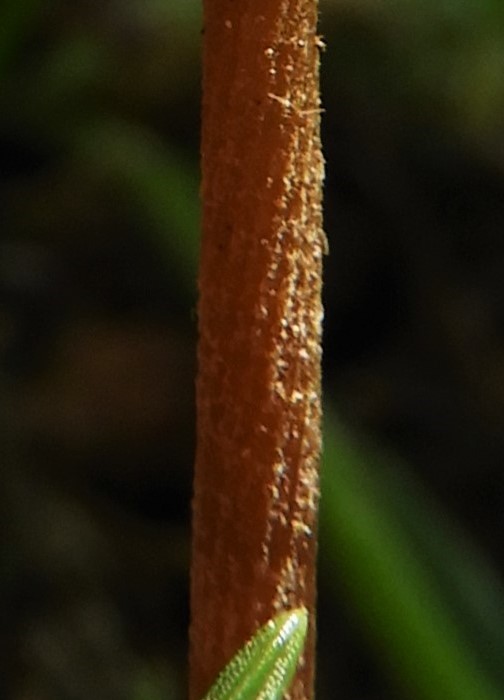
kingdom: Fungi
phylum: Basidiomycota
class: Agaricomycetes
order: Agaricales
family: Bolbitiaceae
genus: Conocybe
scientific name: Conocybe
